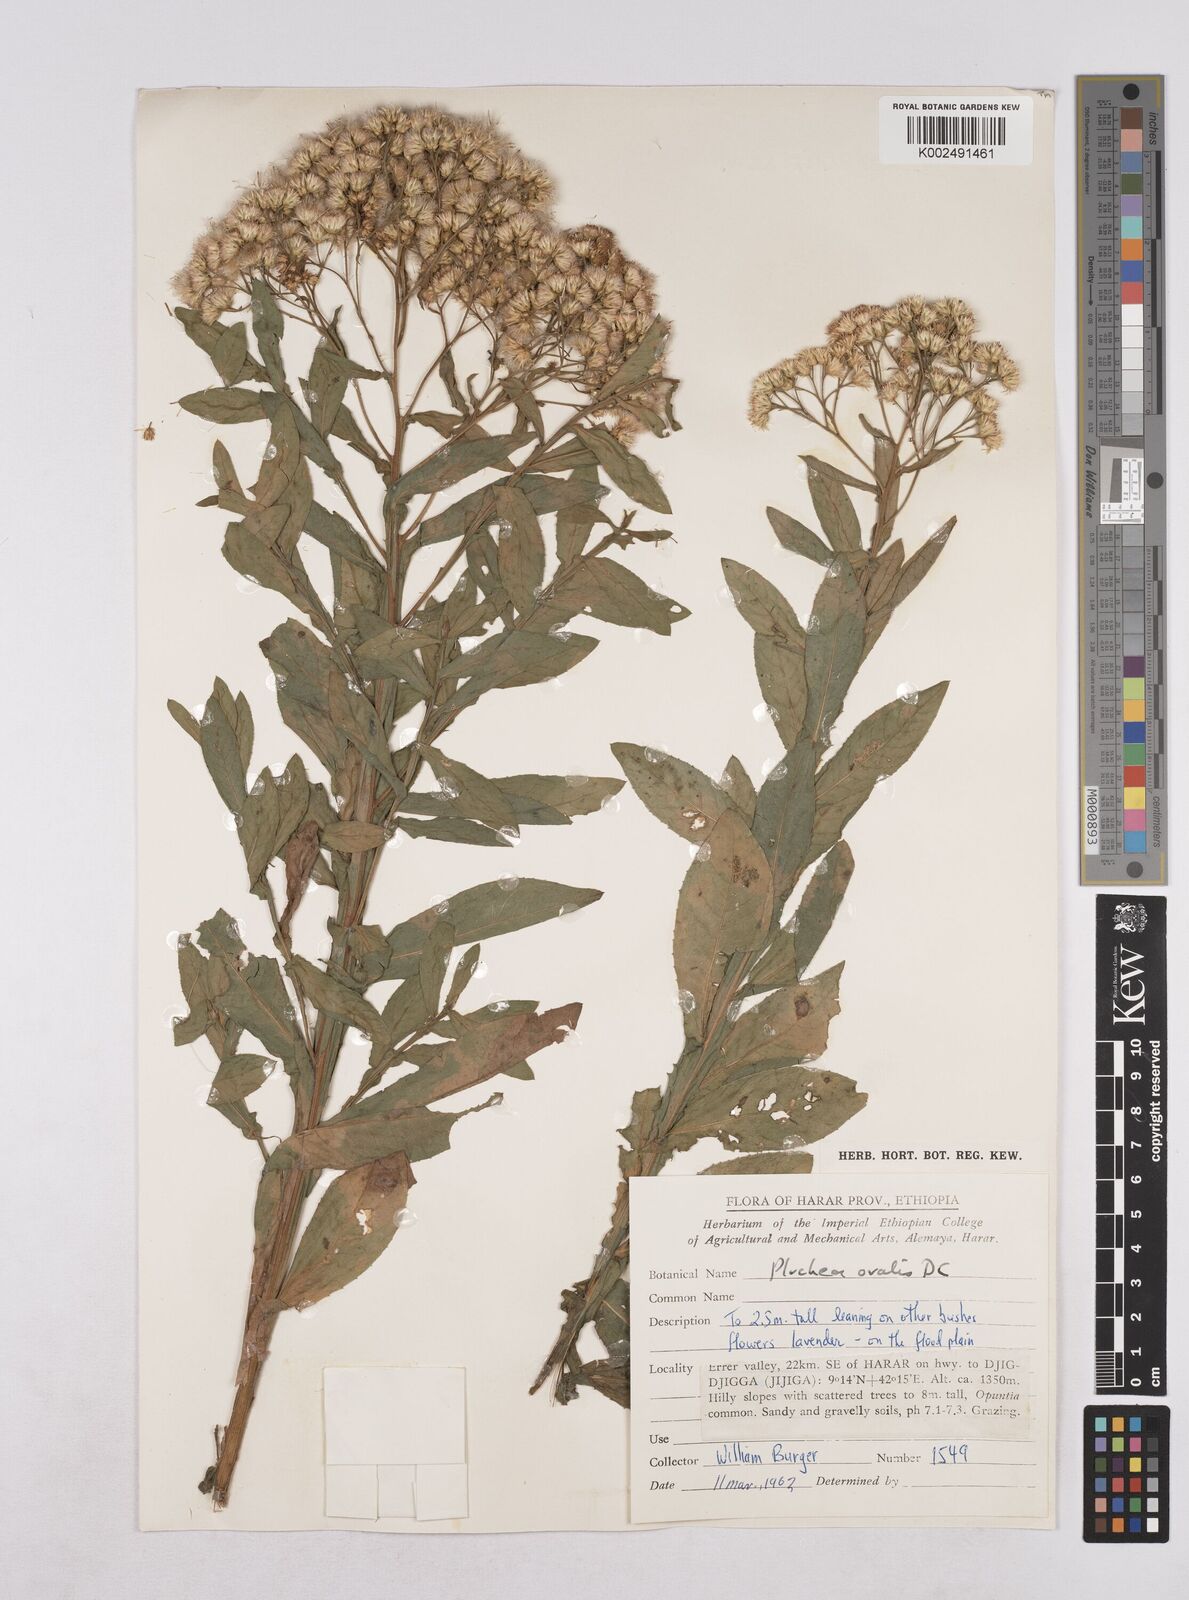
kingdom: Plantae
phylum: Tracheophyta
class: Magnoliopsida
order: Asterales
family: Asteraceae
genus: Pluchea
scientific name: Pluchea ovalis
